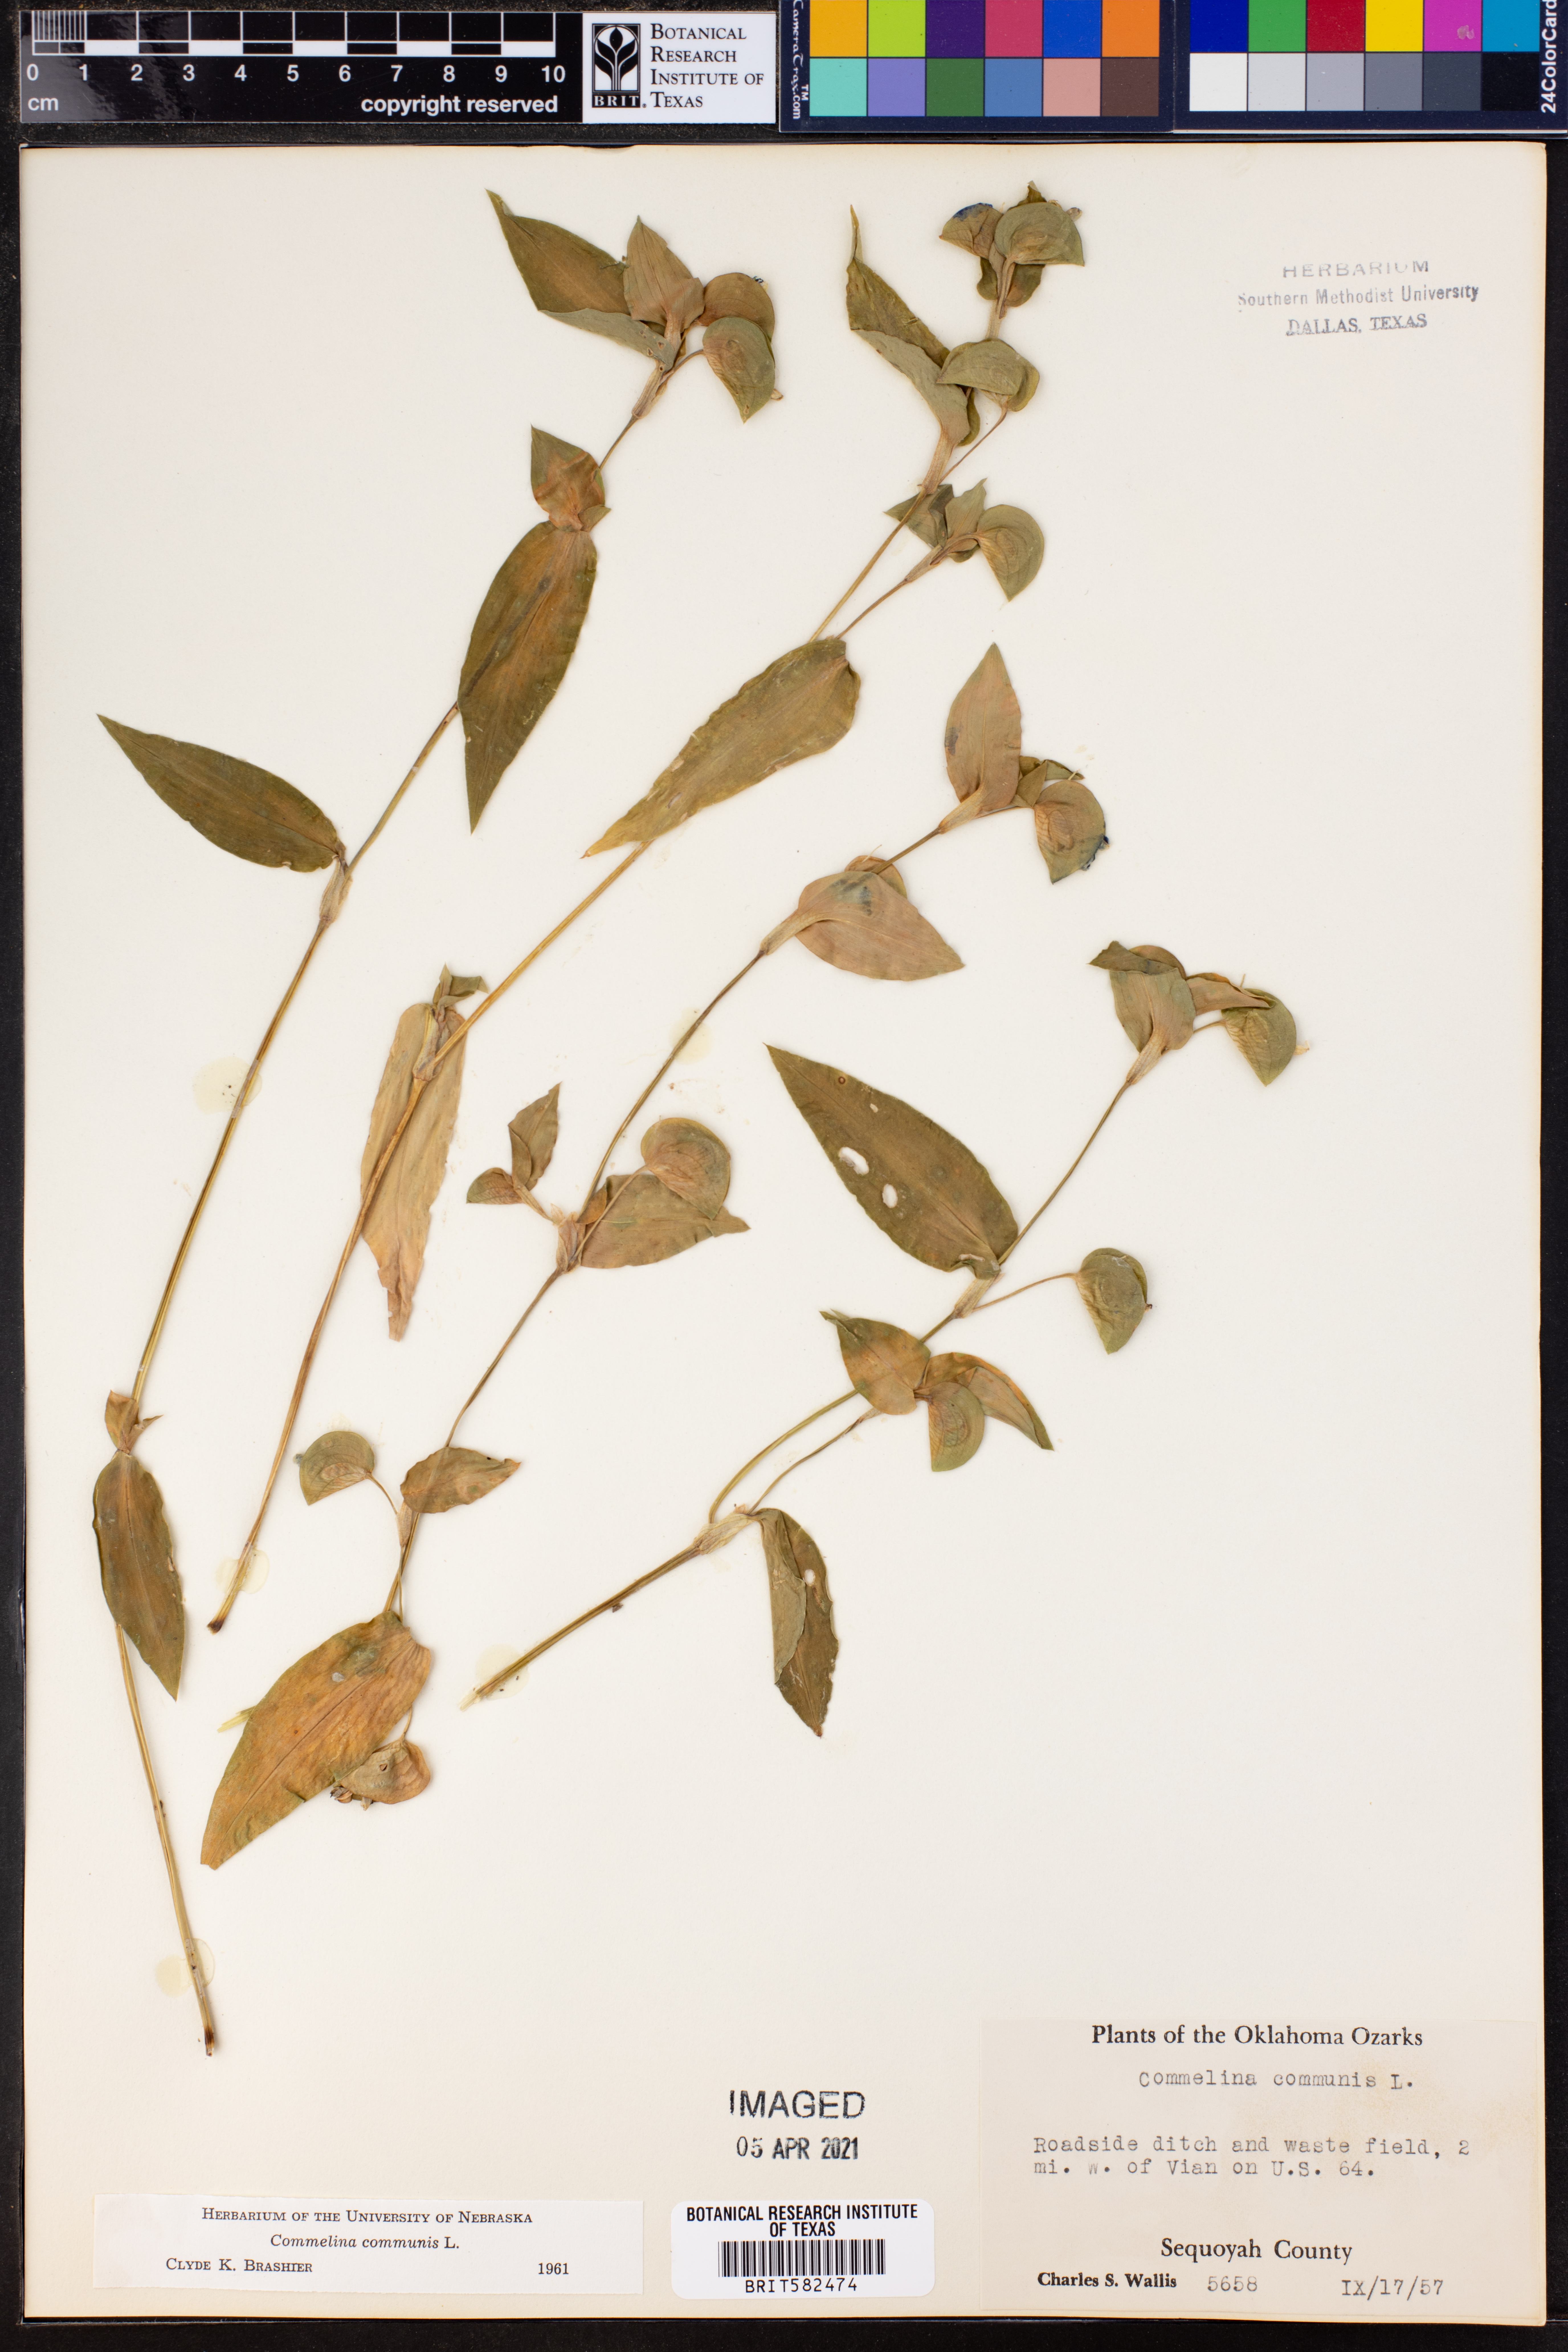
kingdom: Plantae
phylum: Tracheophyta
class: Liliopsida
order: Commelinales
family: Commelinaceae
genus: Commelina
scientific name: Commelina communis
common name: Asiatic dayflower
